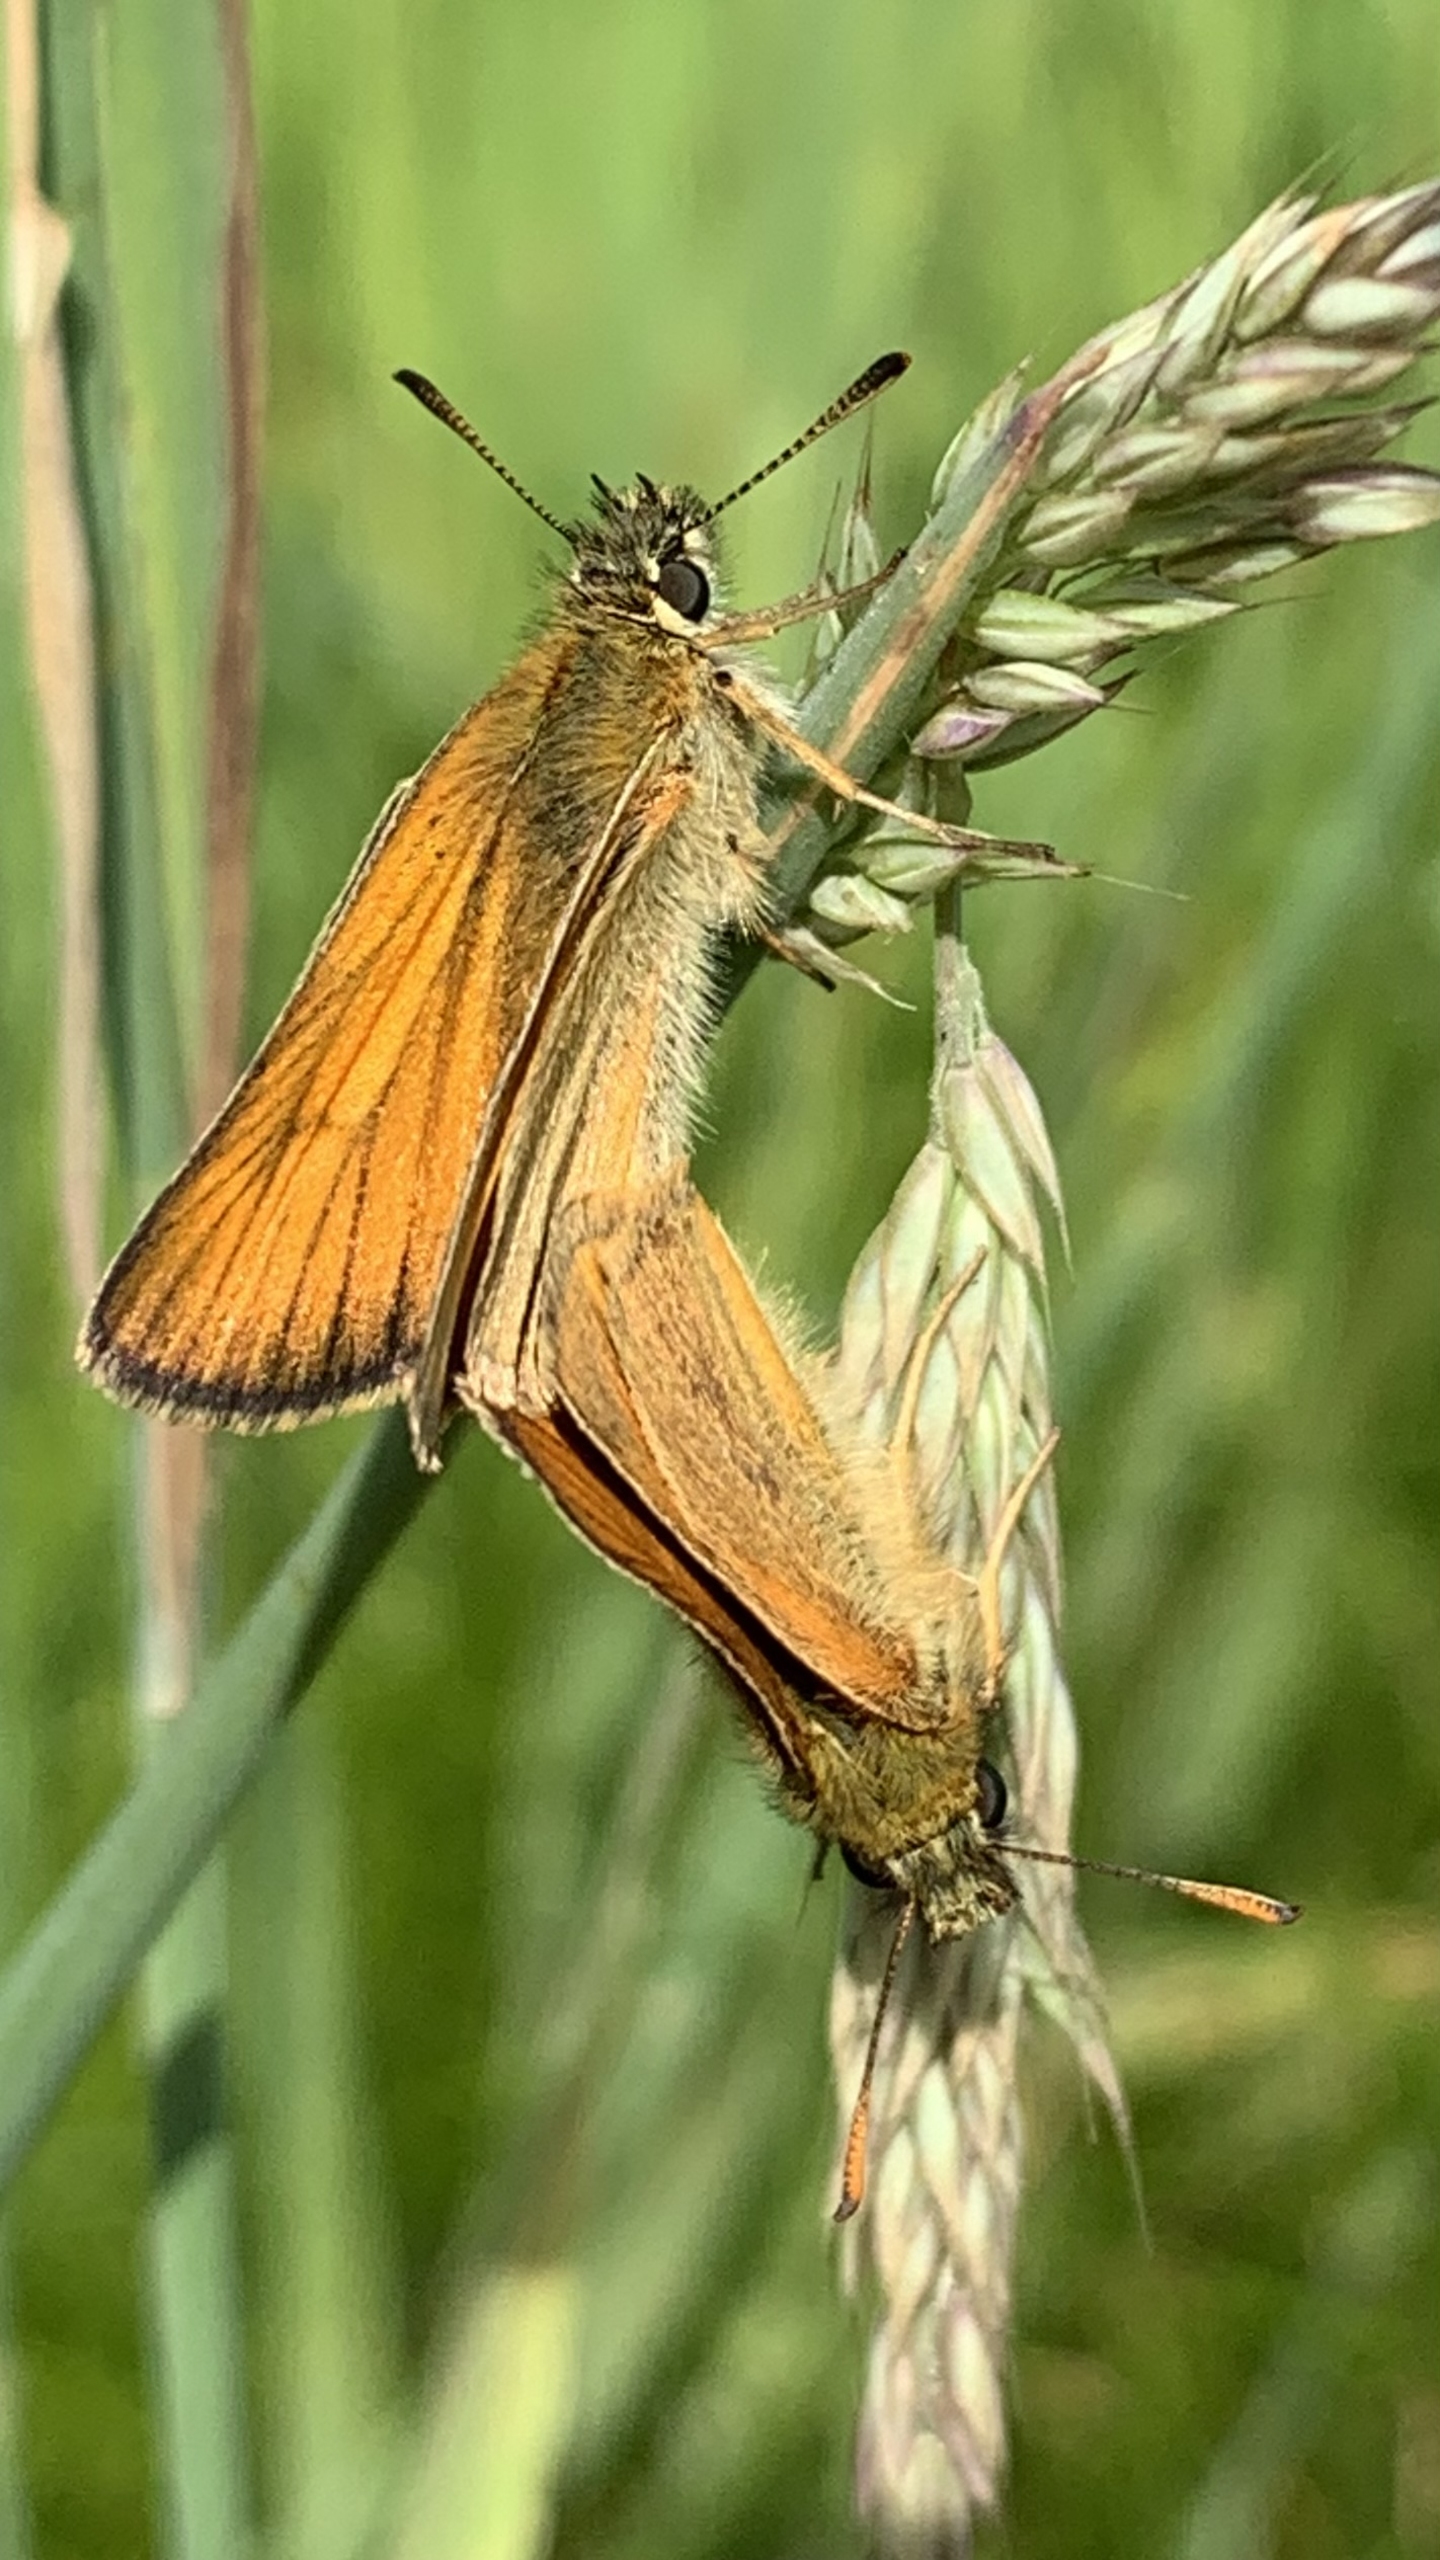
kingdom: Animalia
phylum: Arthropoda
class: Insecta
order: Lepidoptera
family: Hesperiidae
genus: Thymelicus
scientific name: Thymelicus lineola
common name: Stregbredpande
